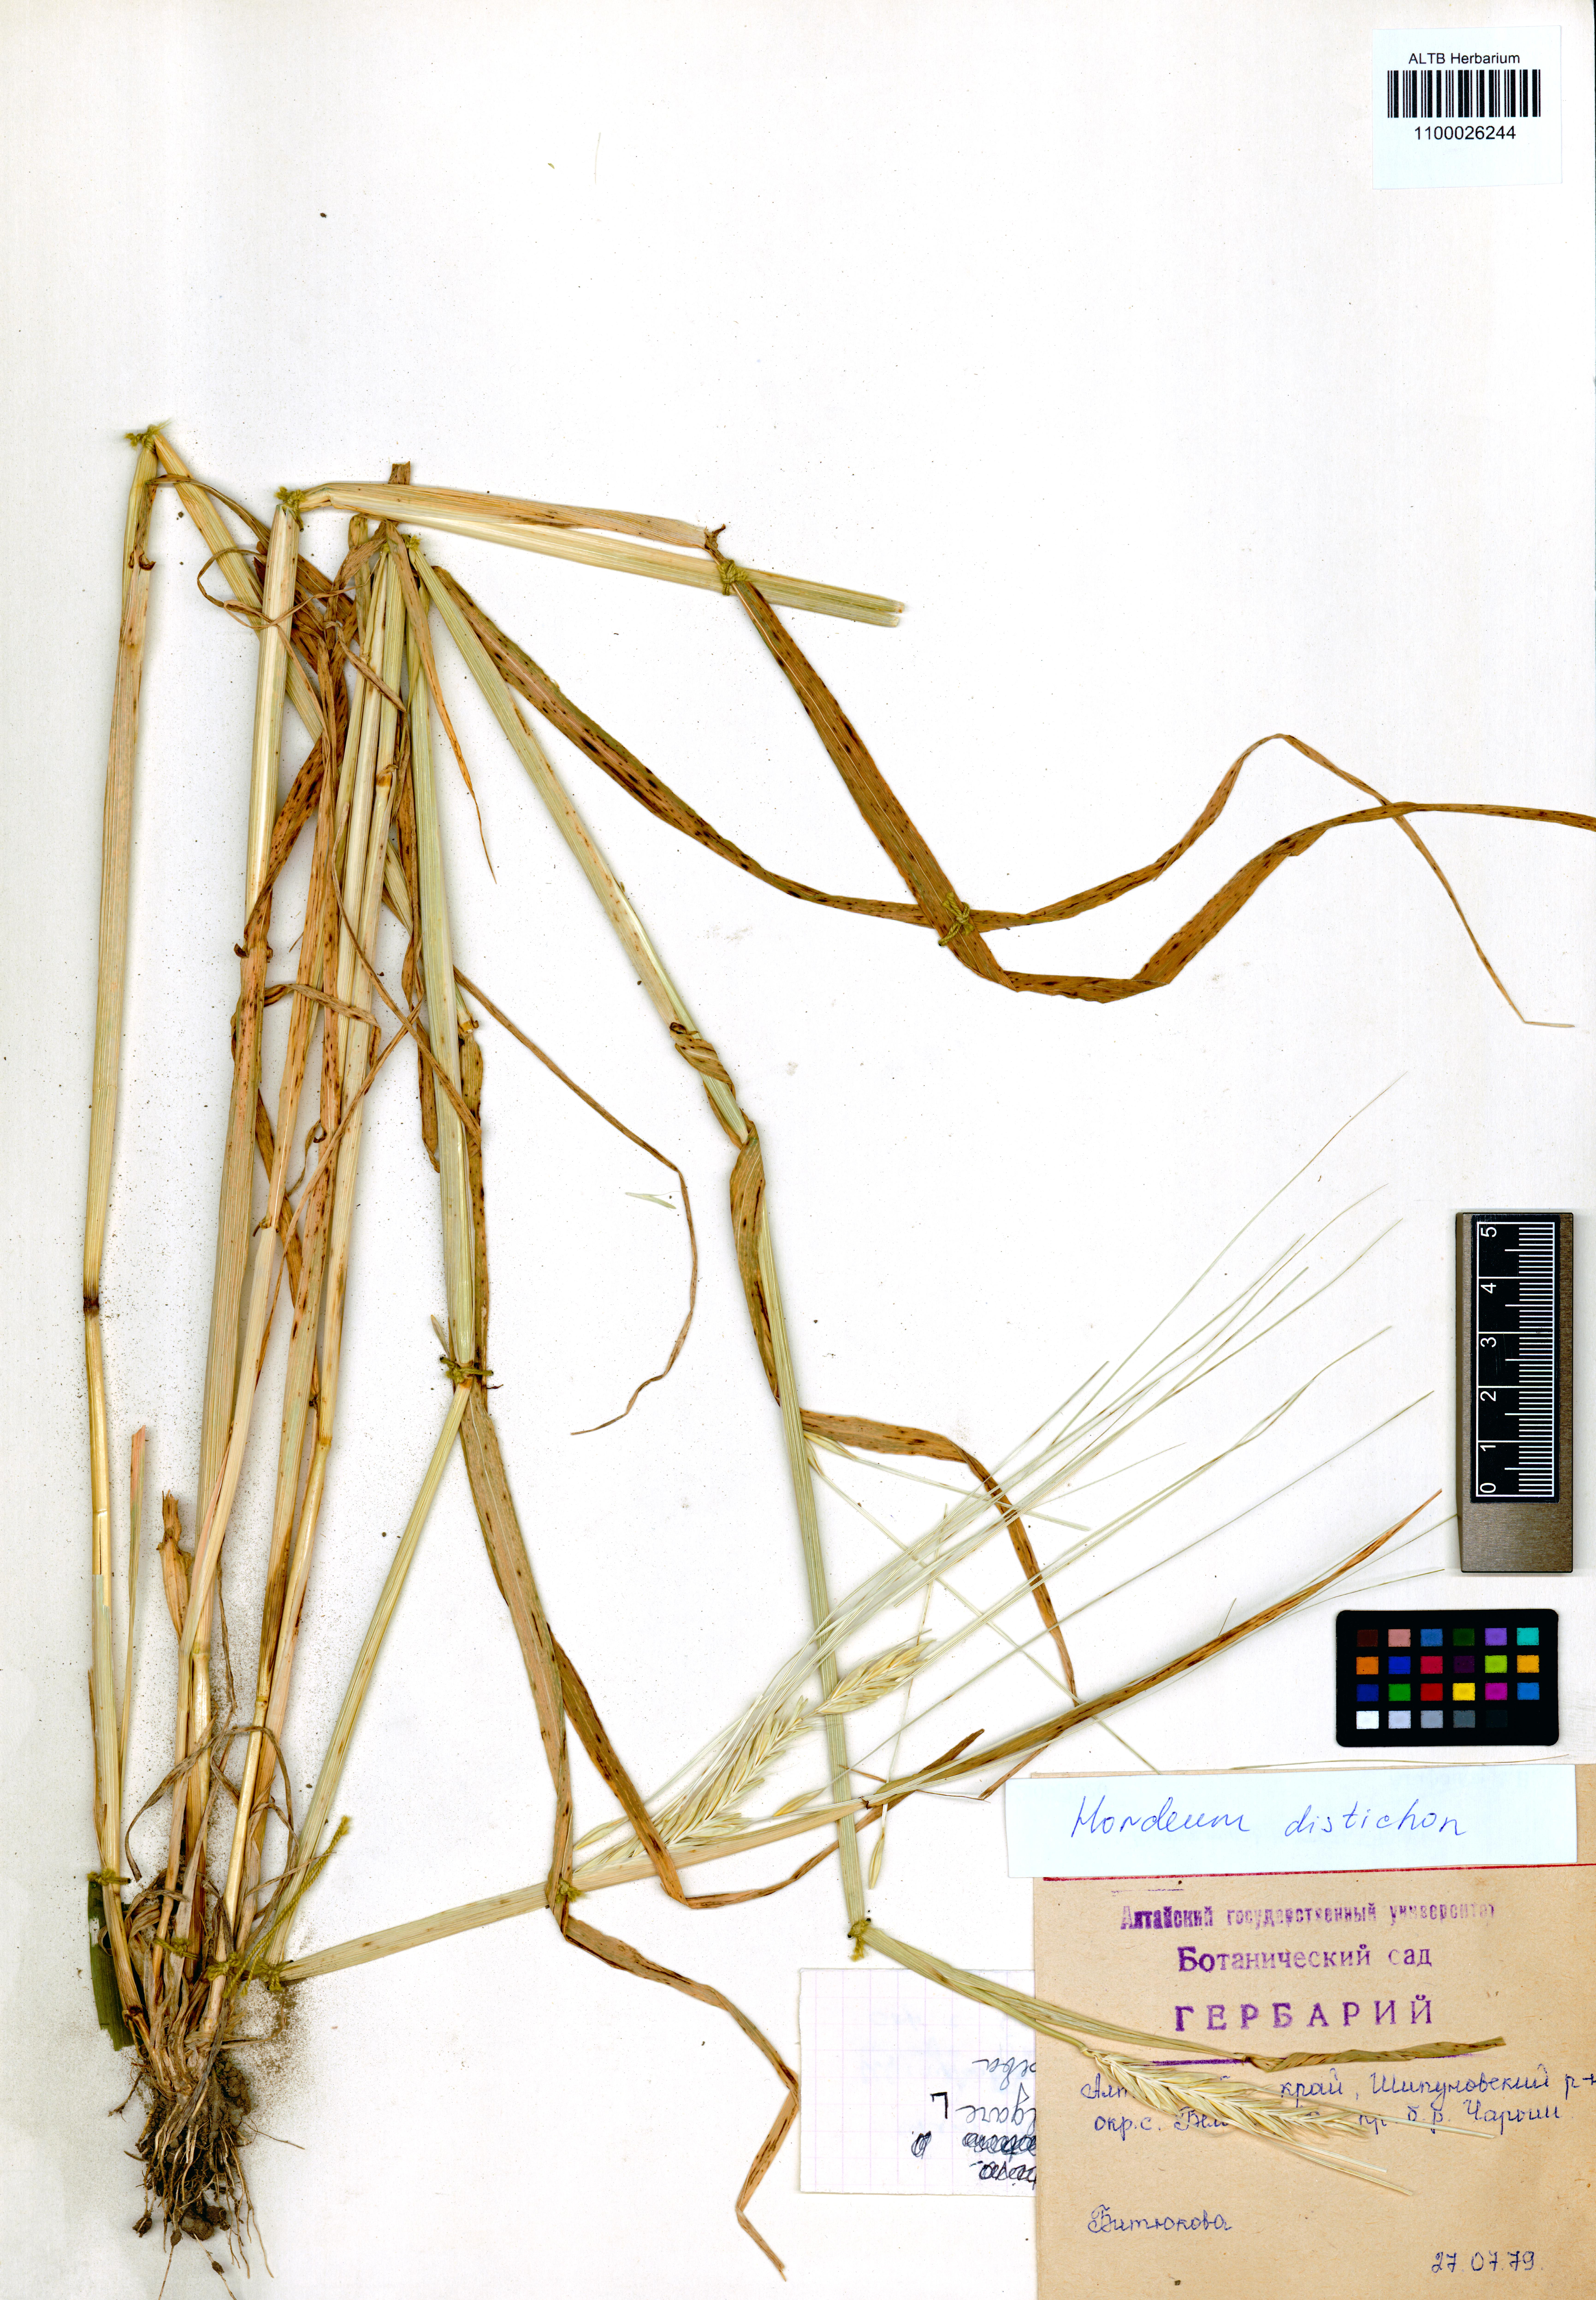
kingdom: Plantae
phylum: Tracheophyta
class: Liliopsida
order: Poales
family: Poaceae
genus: Hordeum
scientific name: Hordeum distichon
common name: Two-rowed barley
